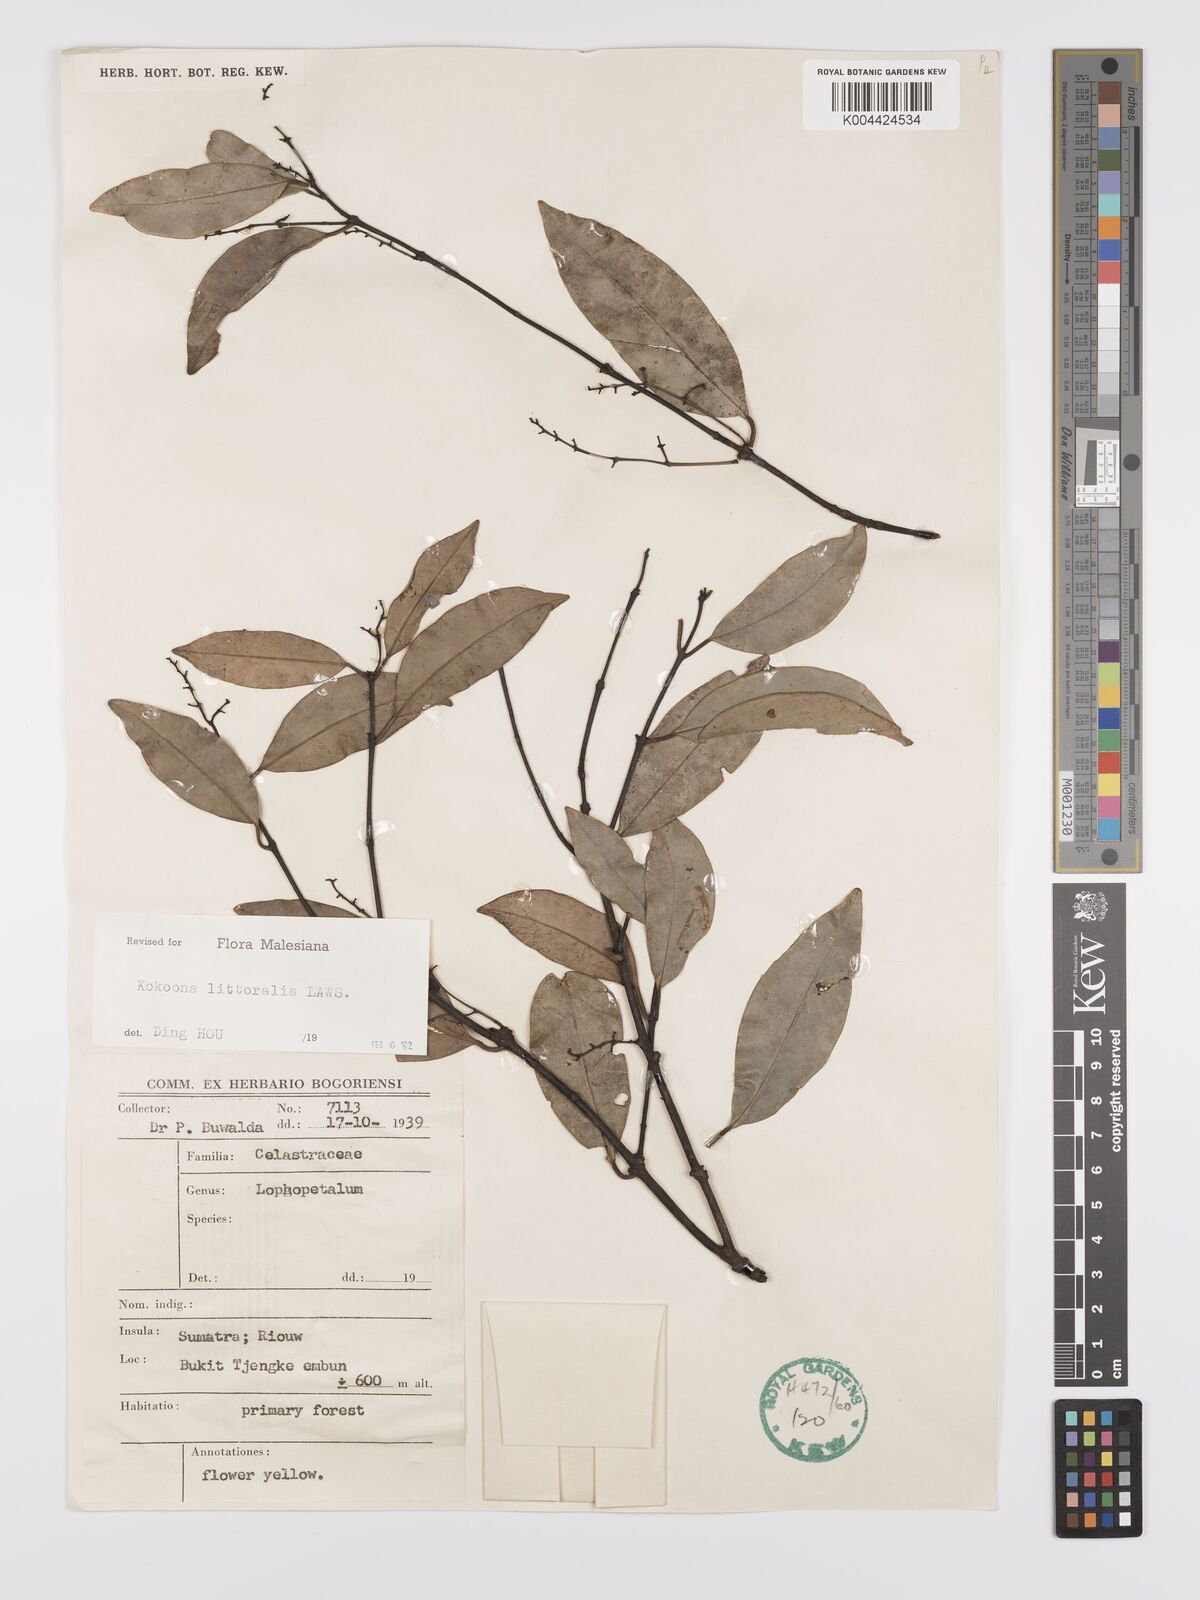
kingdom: Plantae
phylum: Tracheophyta
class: Magnoliopsida
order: Celastrales
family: Celastraceae
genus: Kokoona
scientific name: Kokoona littoralis
